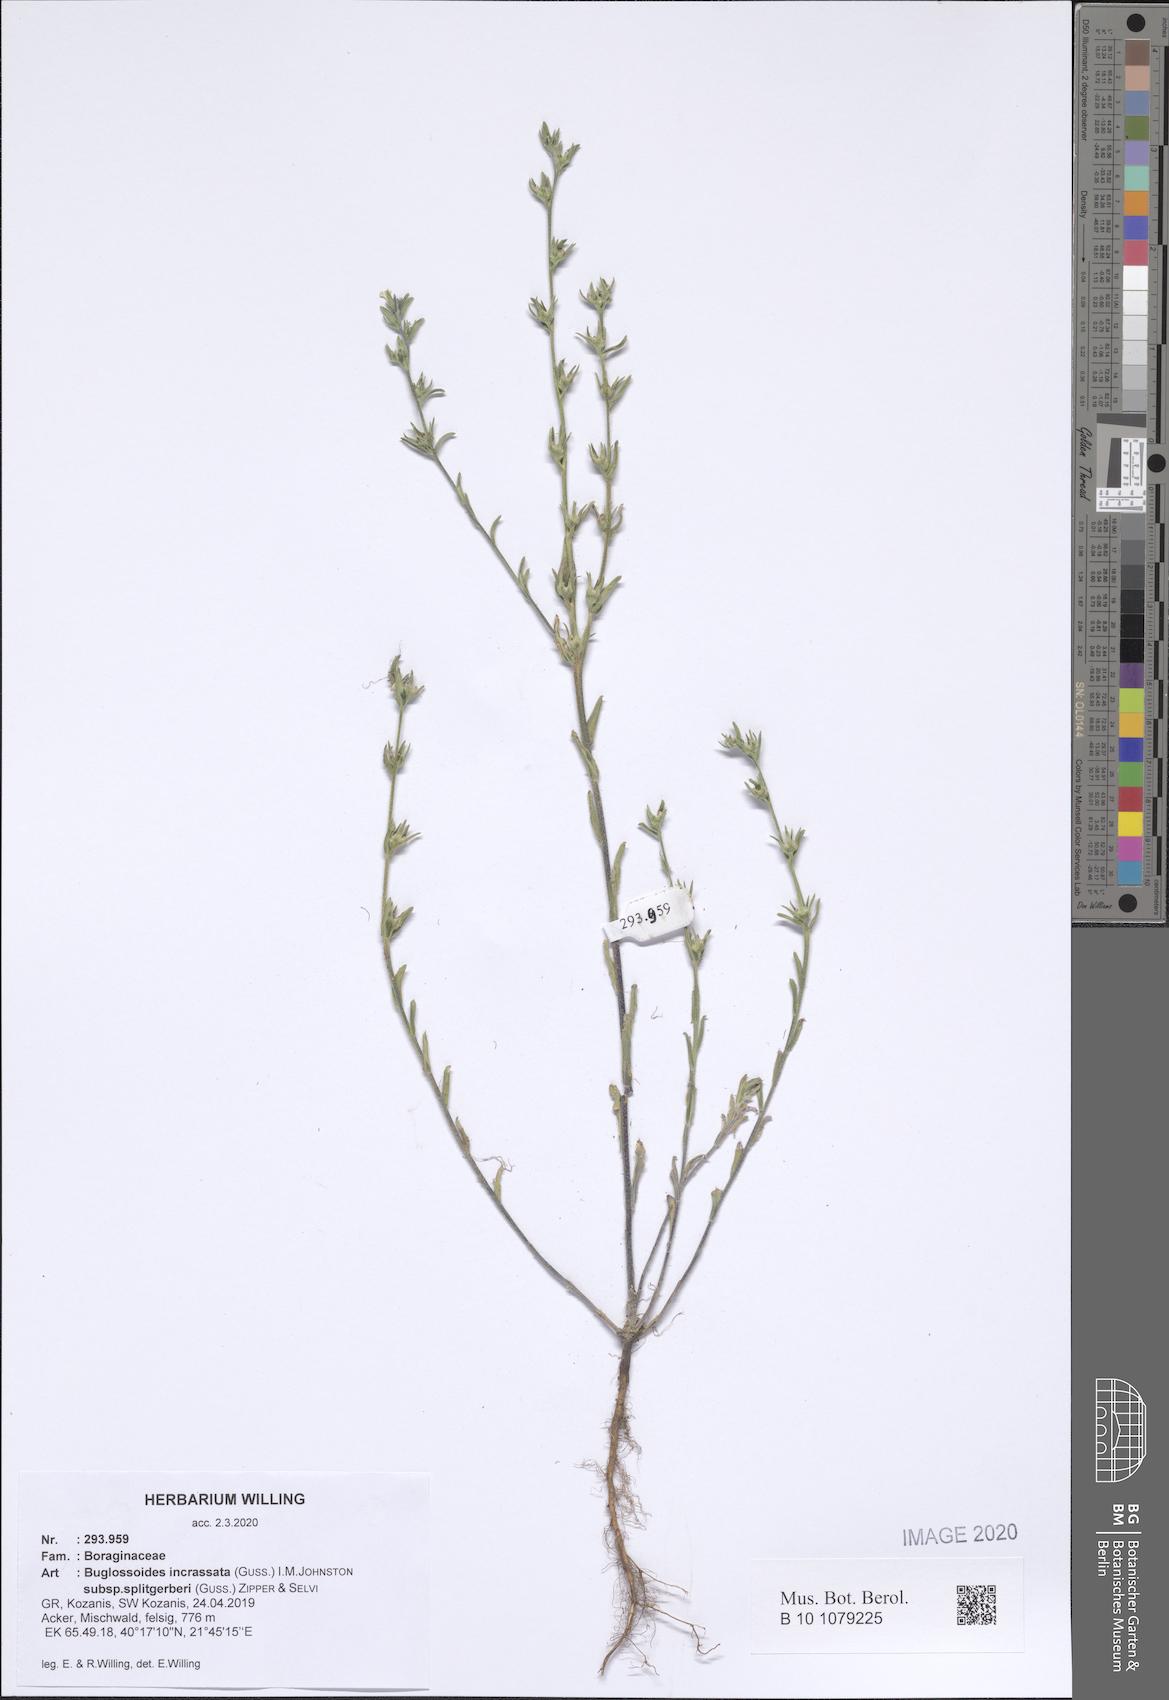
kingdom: Plantae
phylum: Tracheophyta
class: Magnoliopsida
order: Boraginales
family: Boraginaceae
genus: Buglossoides
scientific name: Buglossoides incrassata
